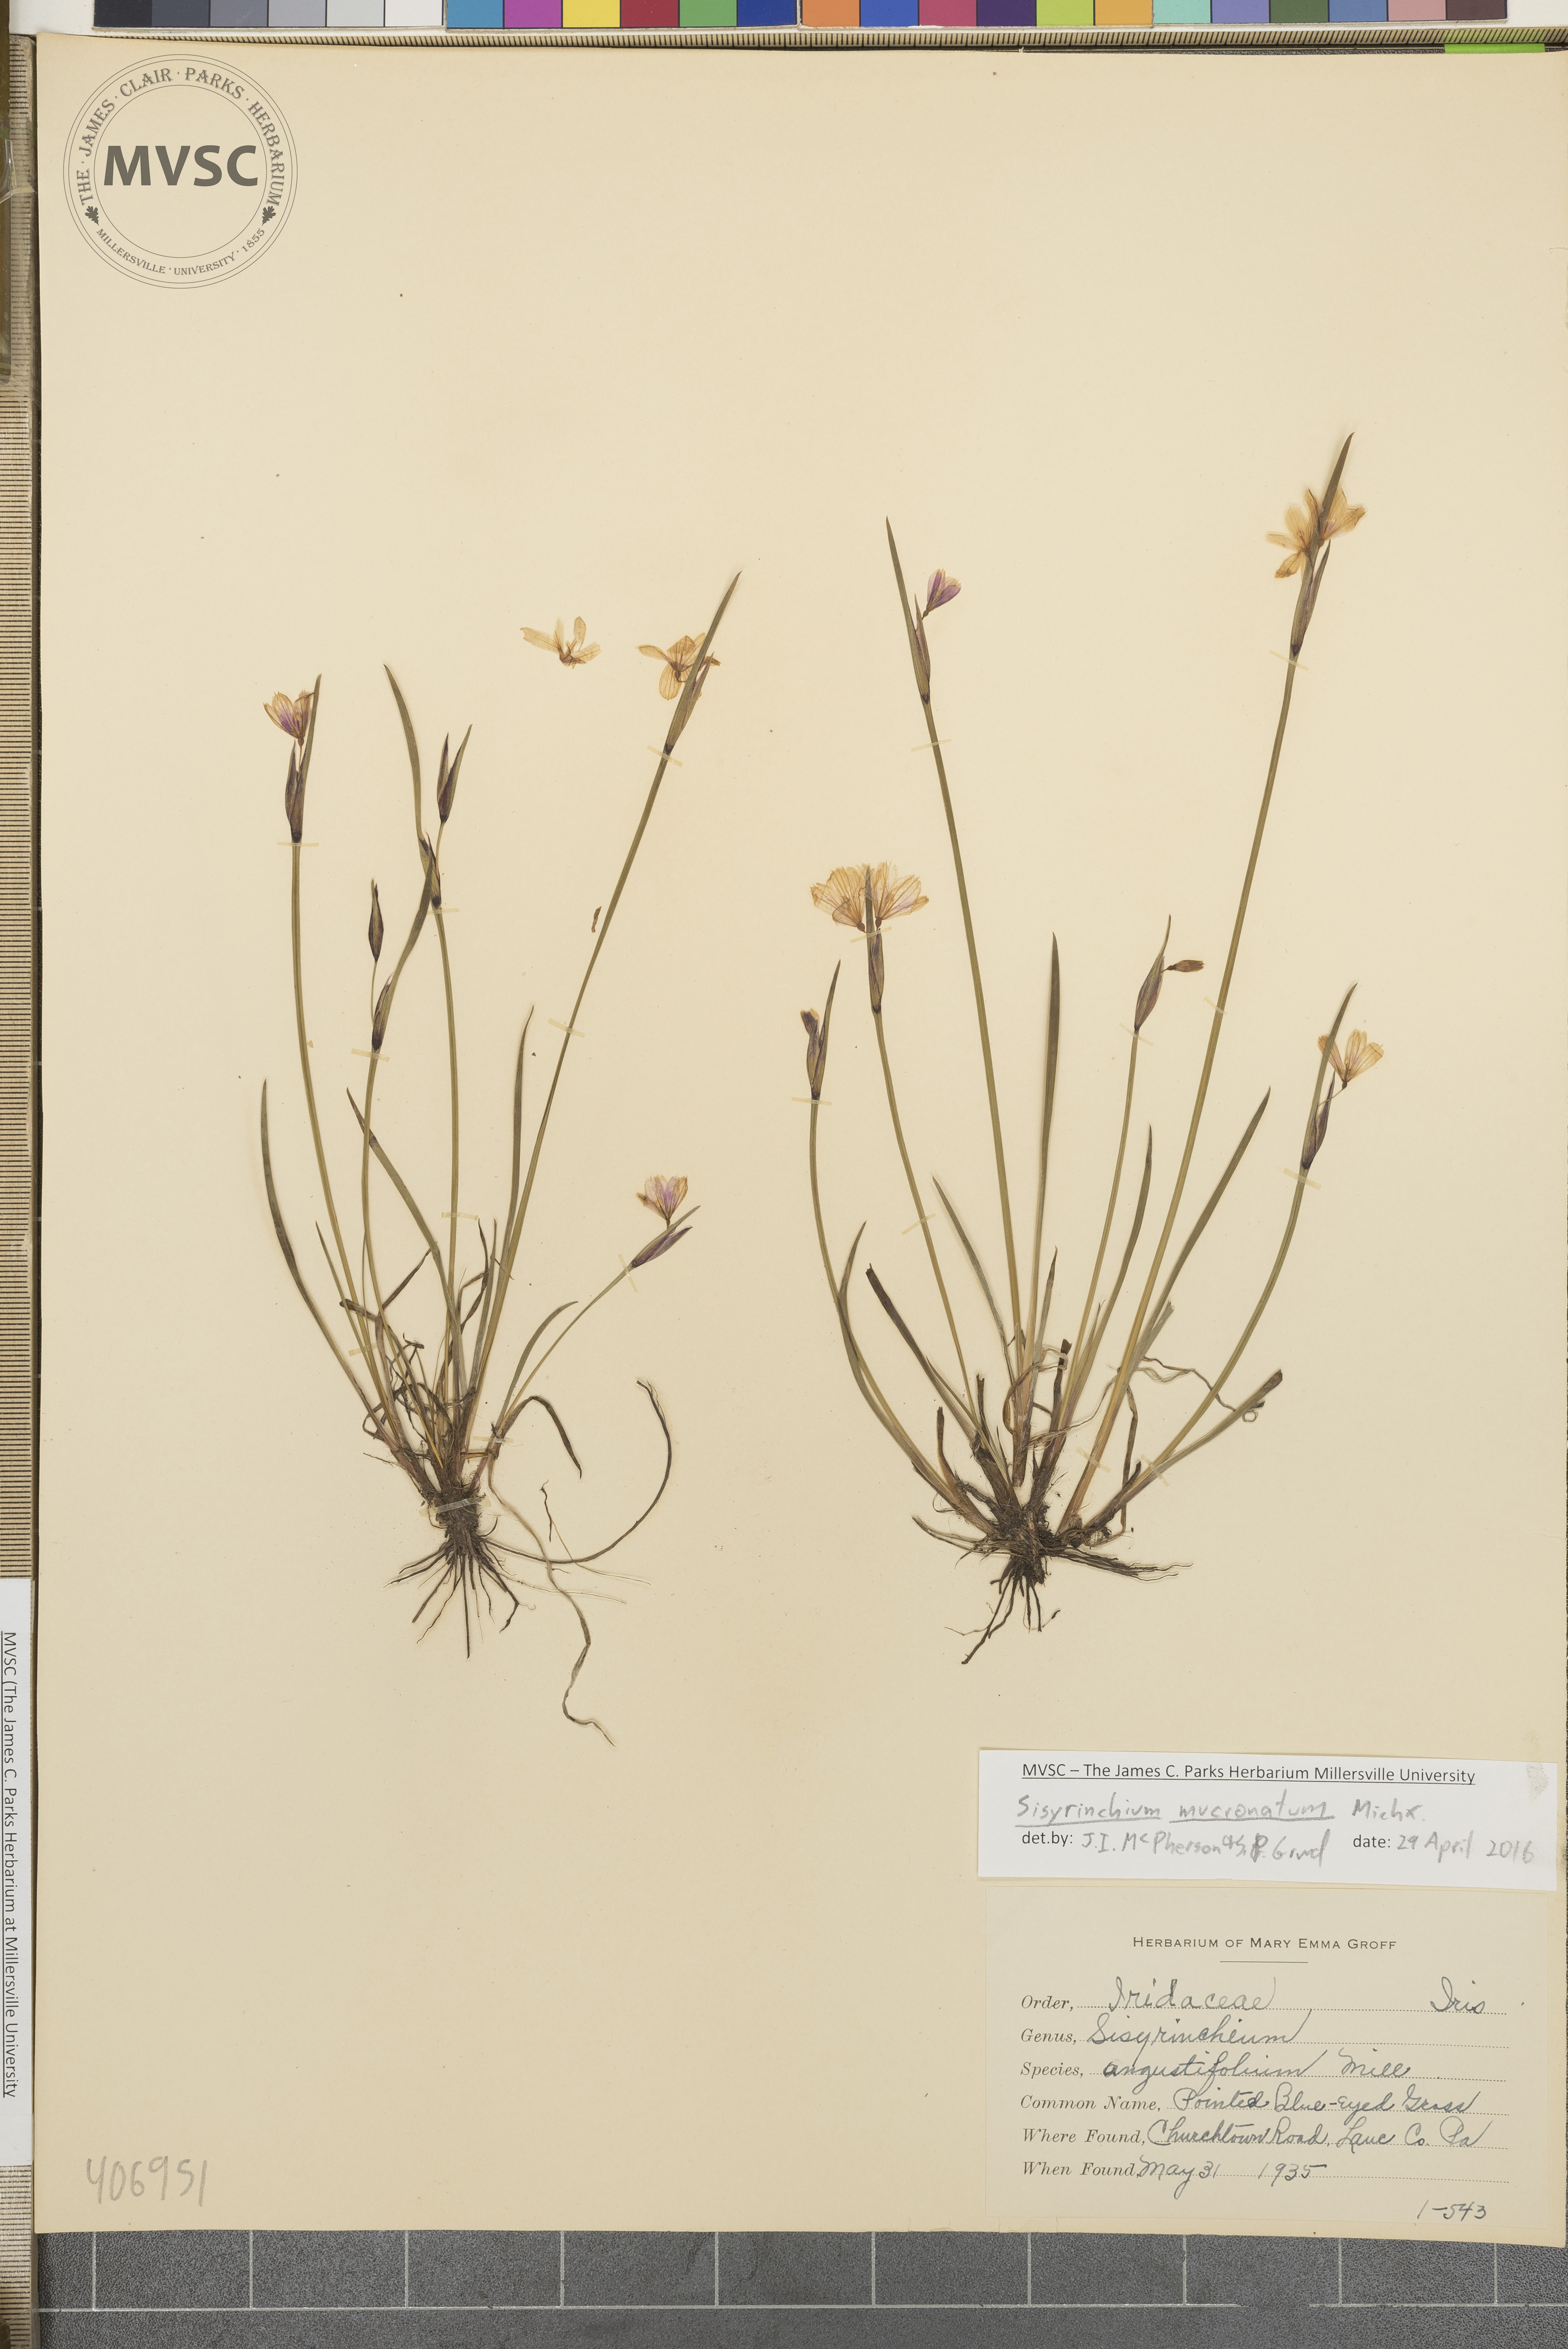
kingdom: Plantae
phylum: Tracheophyta
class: Liliopsida
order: Asparagales
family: Iridaceae
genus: Sisyrinchium
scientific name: Sisyrinchium mucronatum
